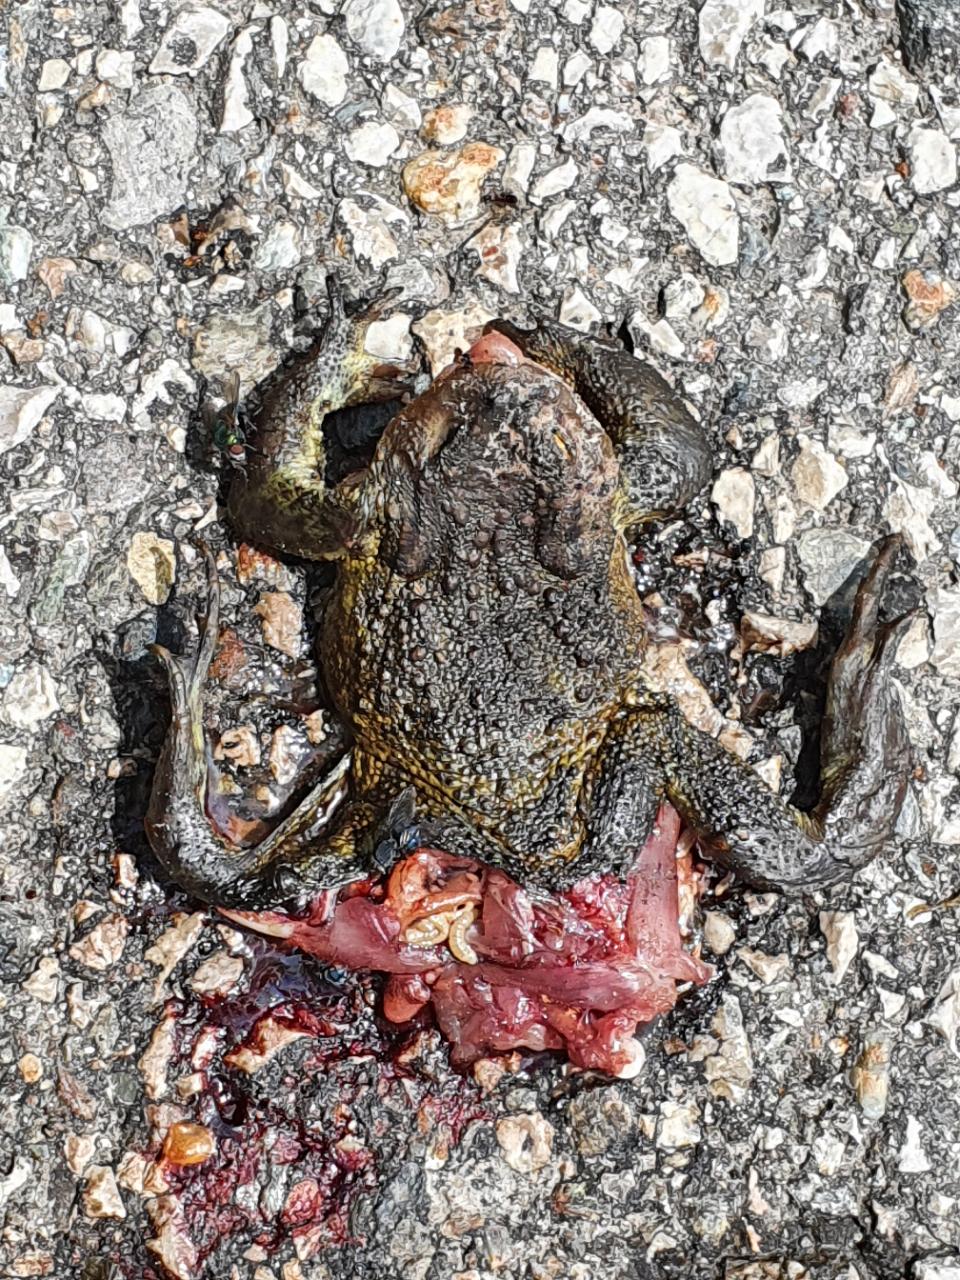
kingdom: Animalia
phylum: Chordata
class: Amphibia
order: Anura
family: Bufonidae
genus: Bufo
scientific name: Bufo bufo
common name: Common toad
